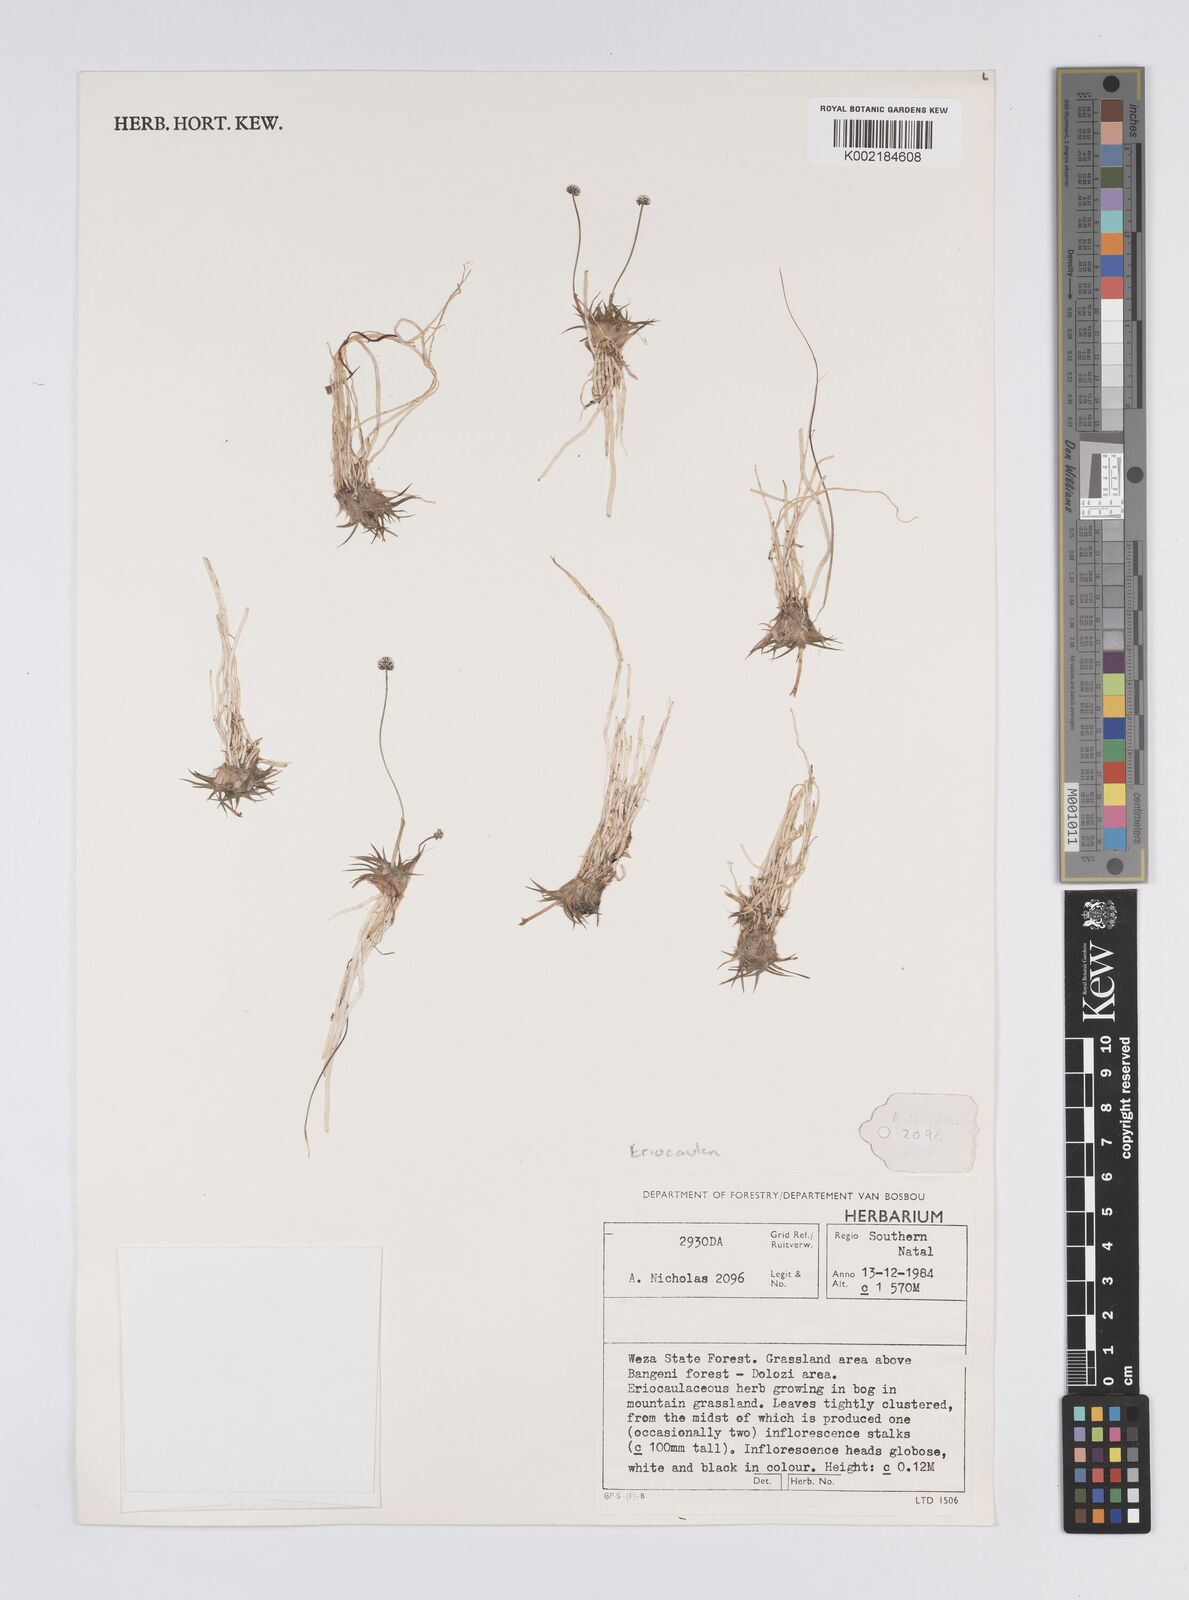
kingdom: Plantae
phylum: Tracheophyta
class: Liliopsida
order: Poales
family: Eriocaulaceae
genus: Eriocaulon
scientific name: Eriocaulon
